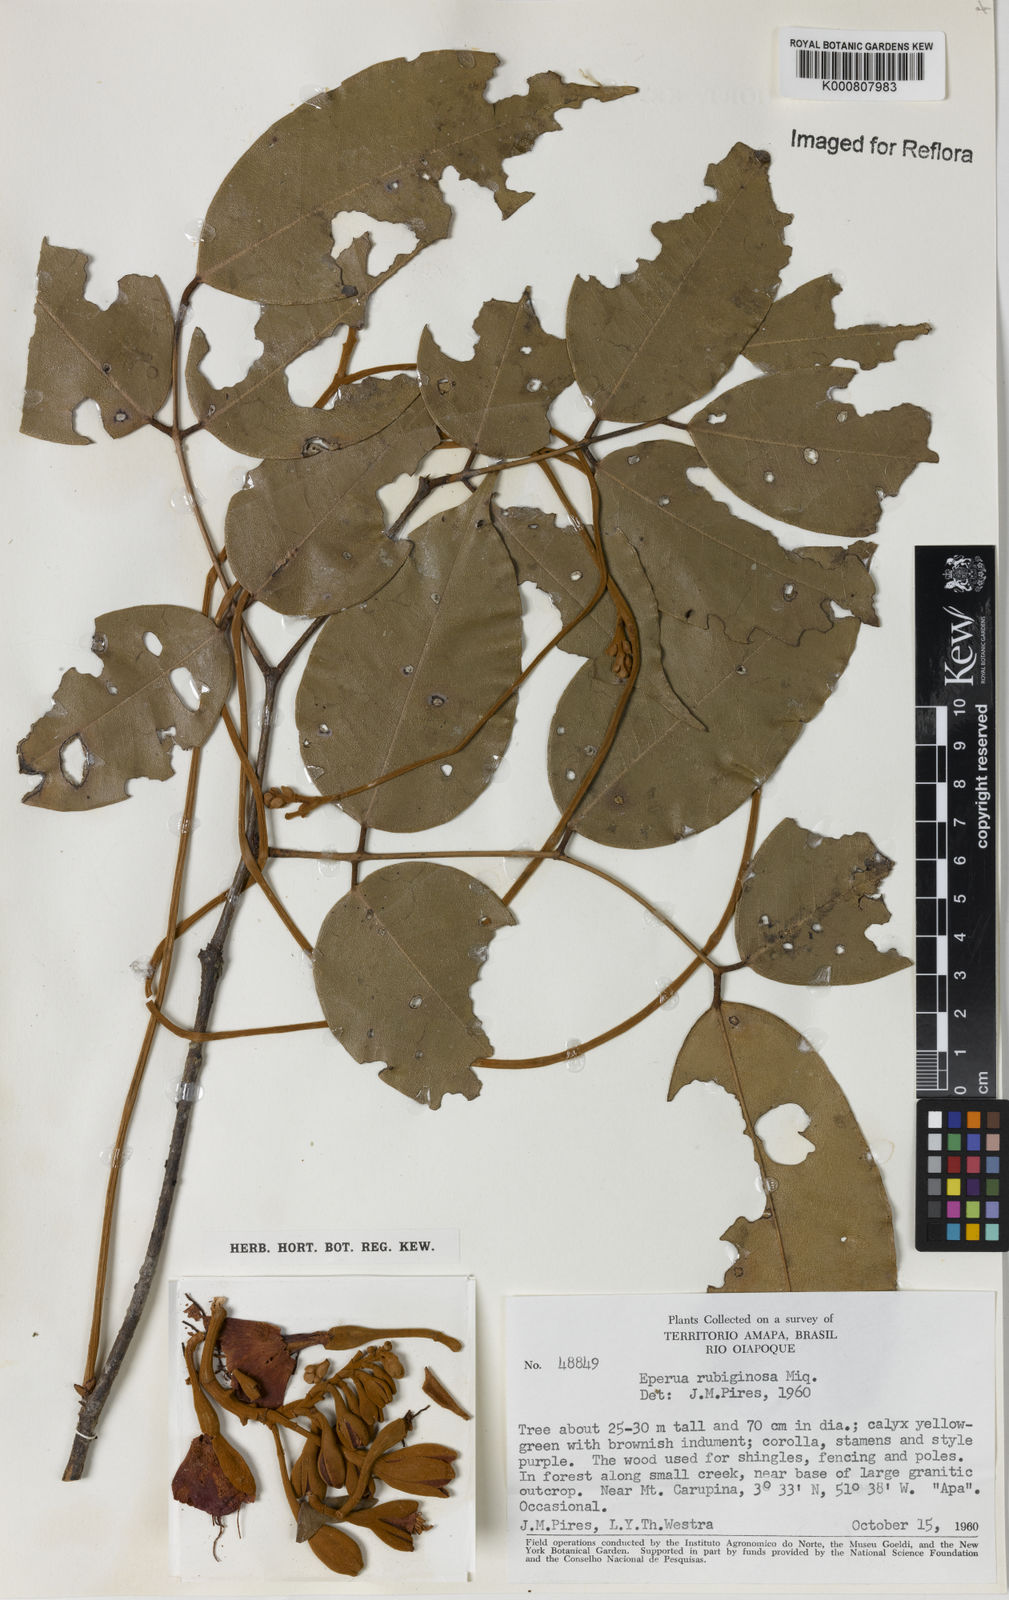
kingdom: Plantae
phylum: Tracheophyta
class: Magnoliopsida
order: Fabales
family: Fabaceae
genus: Eperua
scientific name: Eperua rubiginosa
